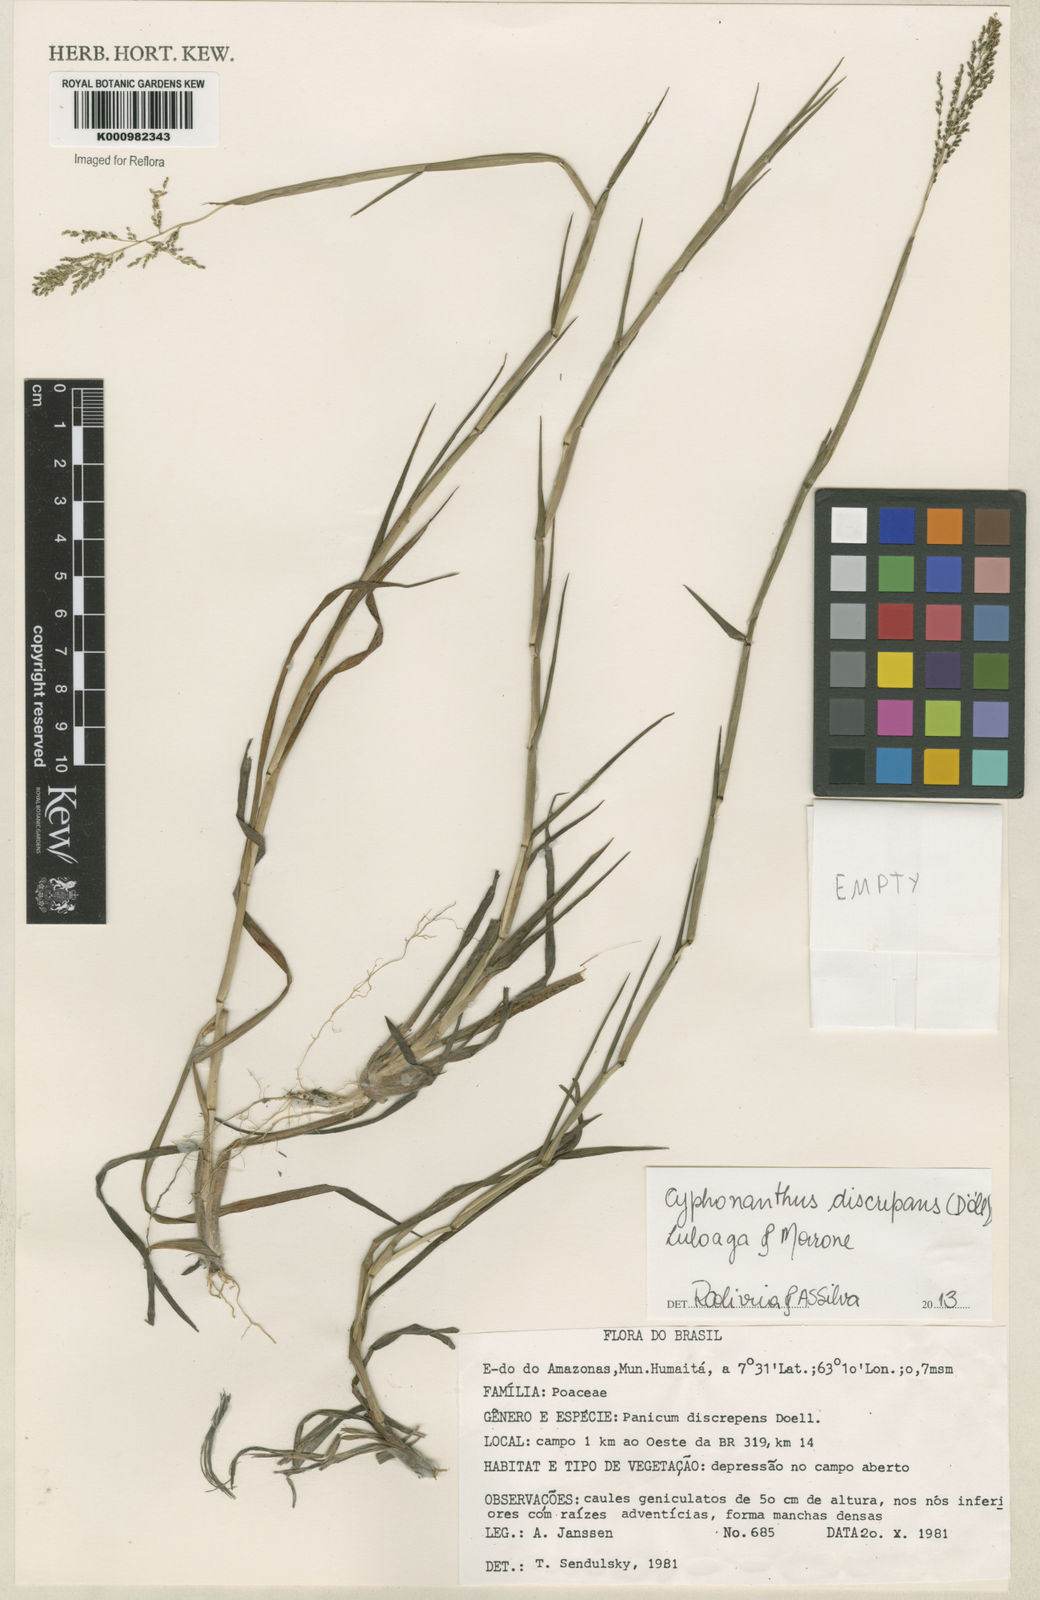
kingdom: Plantae
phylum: Tracheophyta
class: Liliopsida
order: Poales
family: Poaceae
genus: Panicum
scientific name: Panicum
